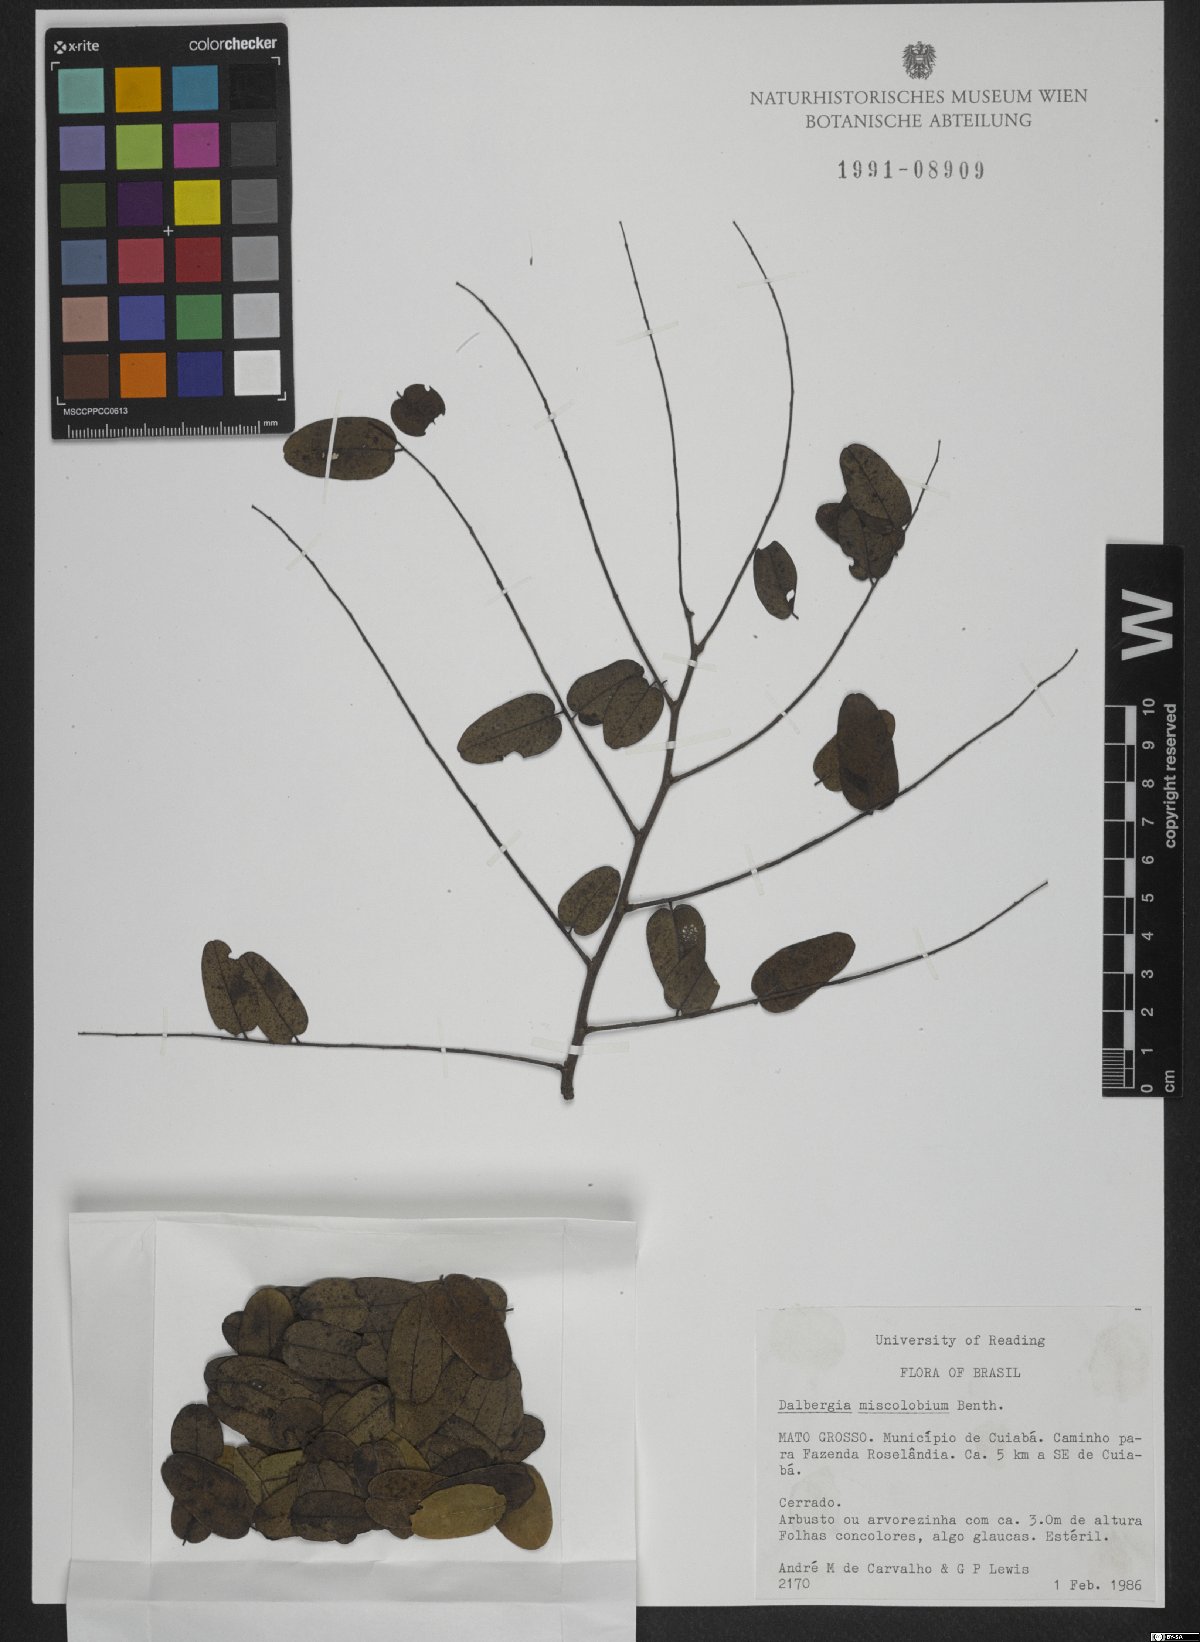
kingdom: Plantae
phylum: Tracheophyta
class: Magnoliopsida
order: Fabales
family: Fabaceae
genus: Dalbergia
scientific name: Dalbergia miscolobium
